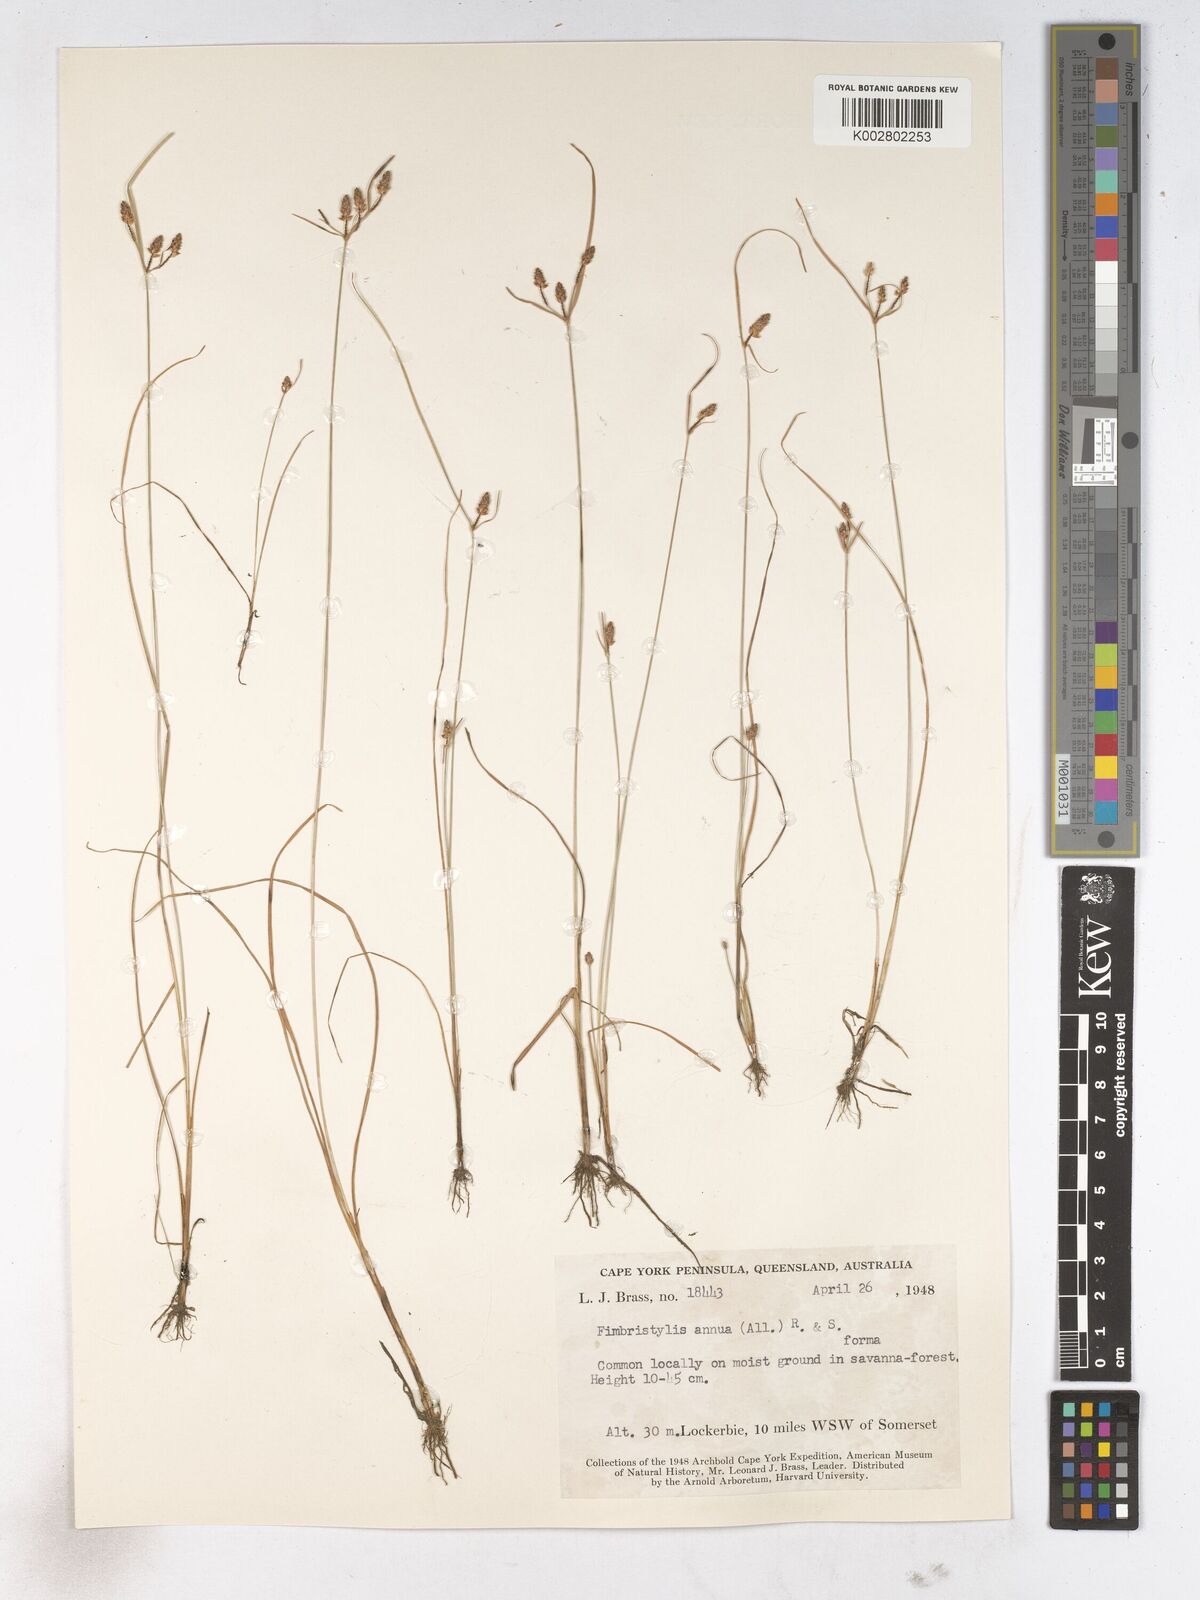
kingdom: Plantae
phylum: Tracheophyta
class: Liliopsida
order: Poales
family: Cyperaceae
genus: Fimbristylis
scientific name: Fimbristylis dichotoma
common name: Forked fimbry
